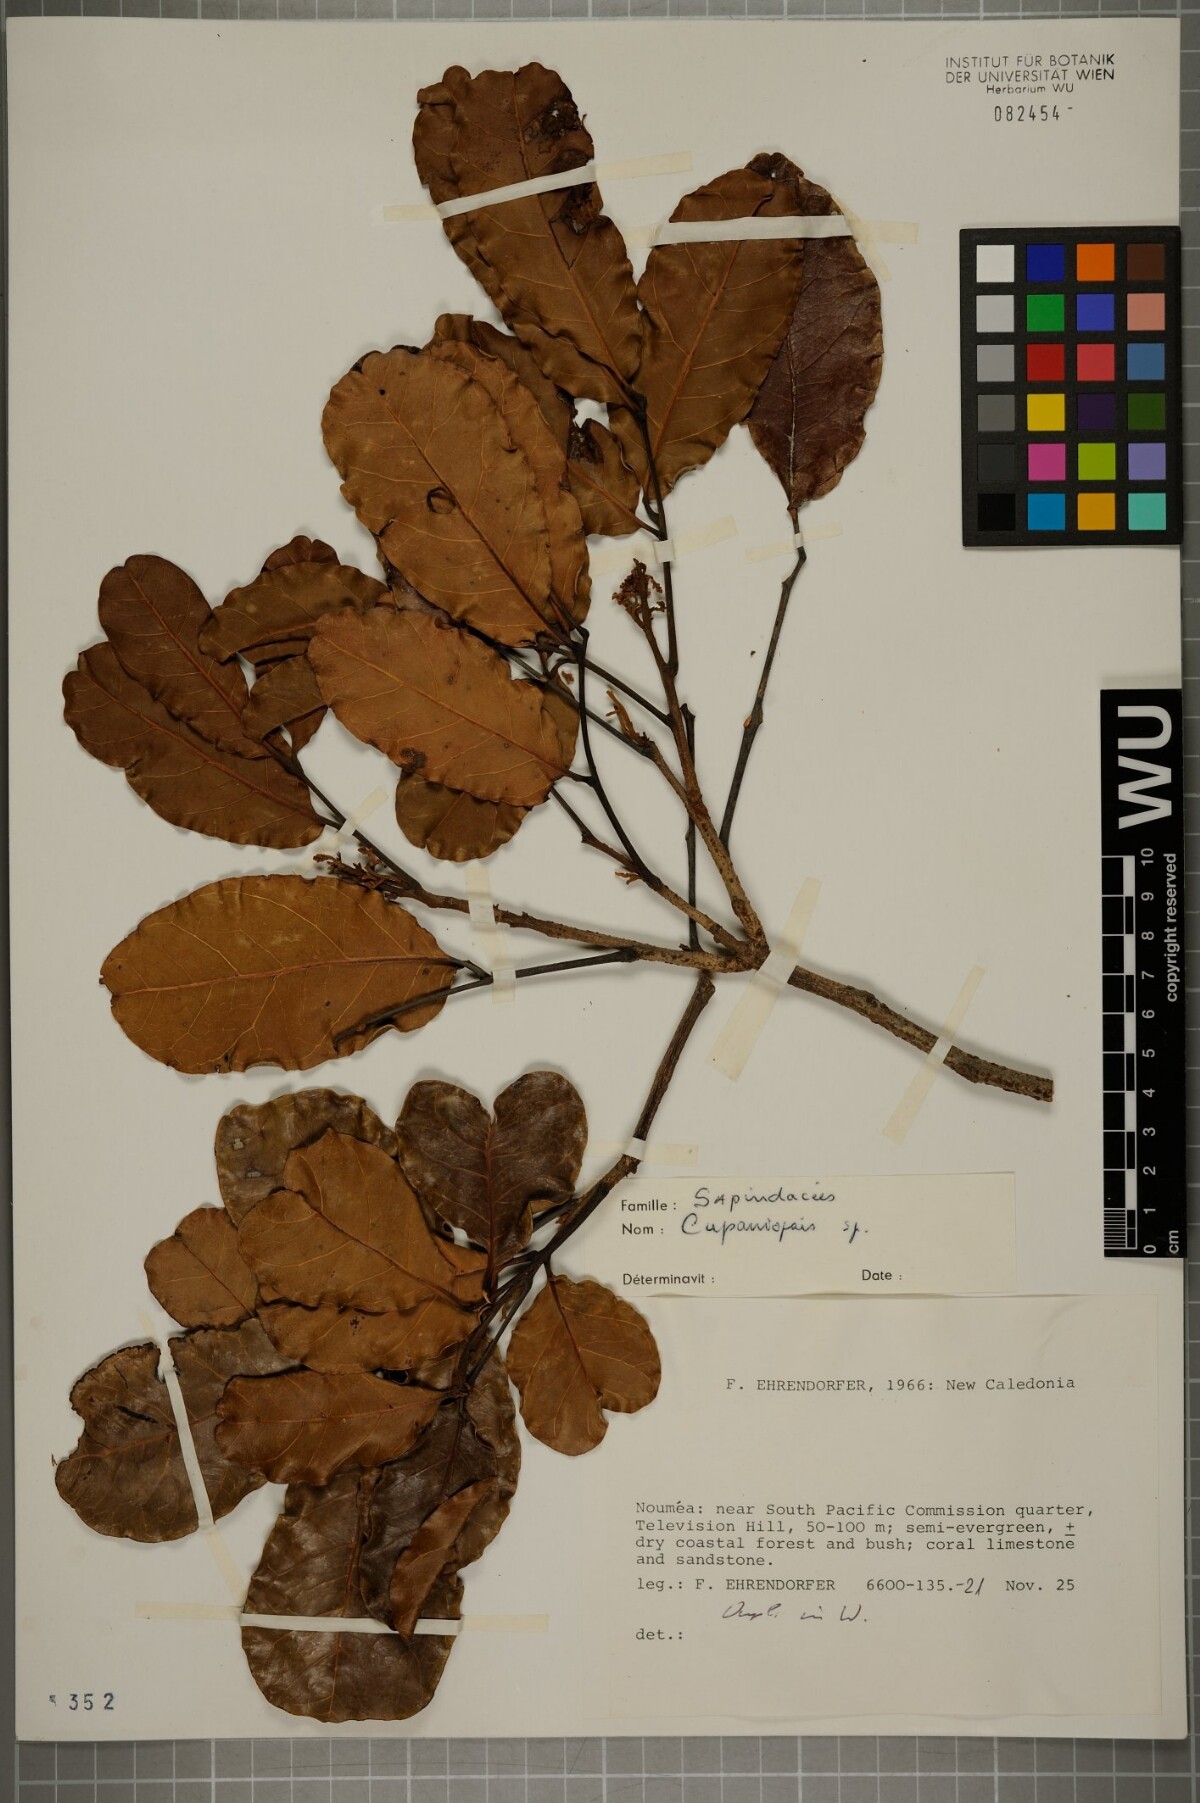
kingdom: Plantae
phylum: Tracheophyta
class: Magnoliopsida
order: Sapindales
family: Sapindaceae
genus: Cupaniopsis
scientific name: Cupaniopsis
